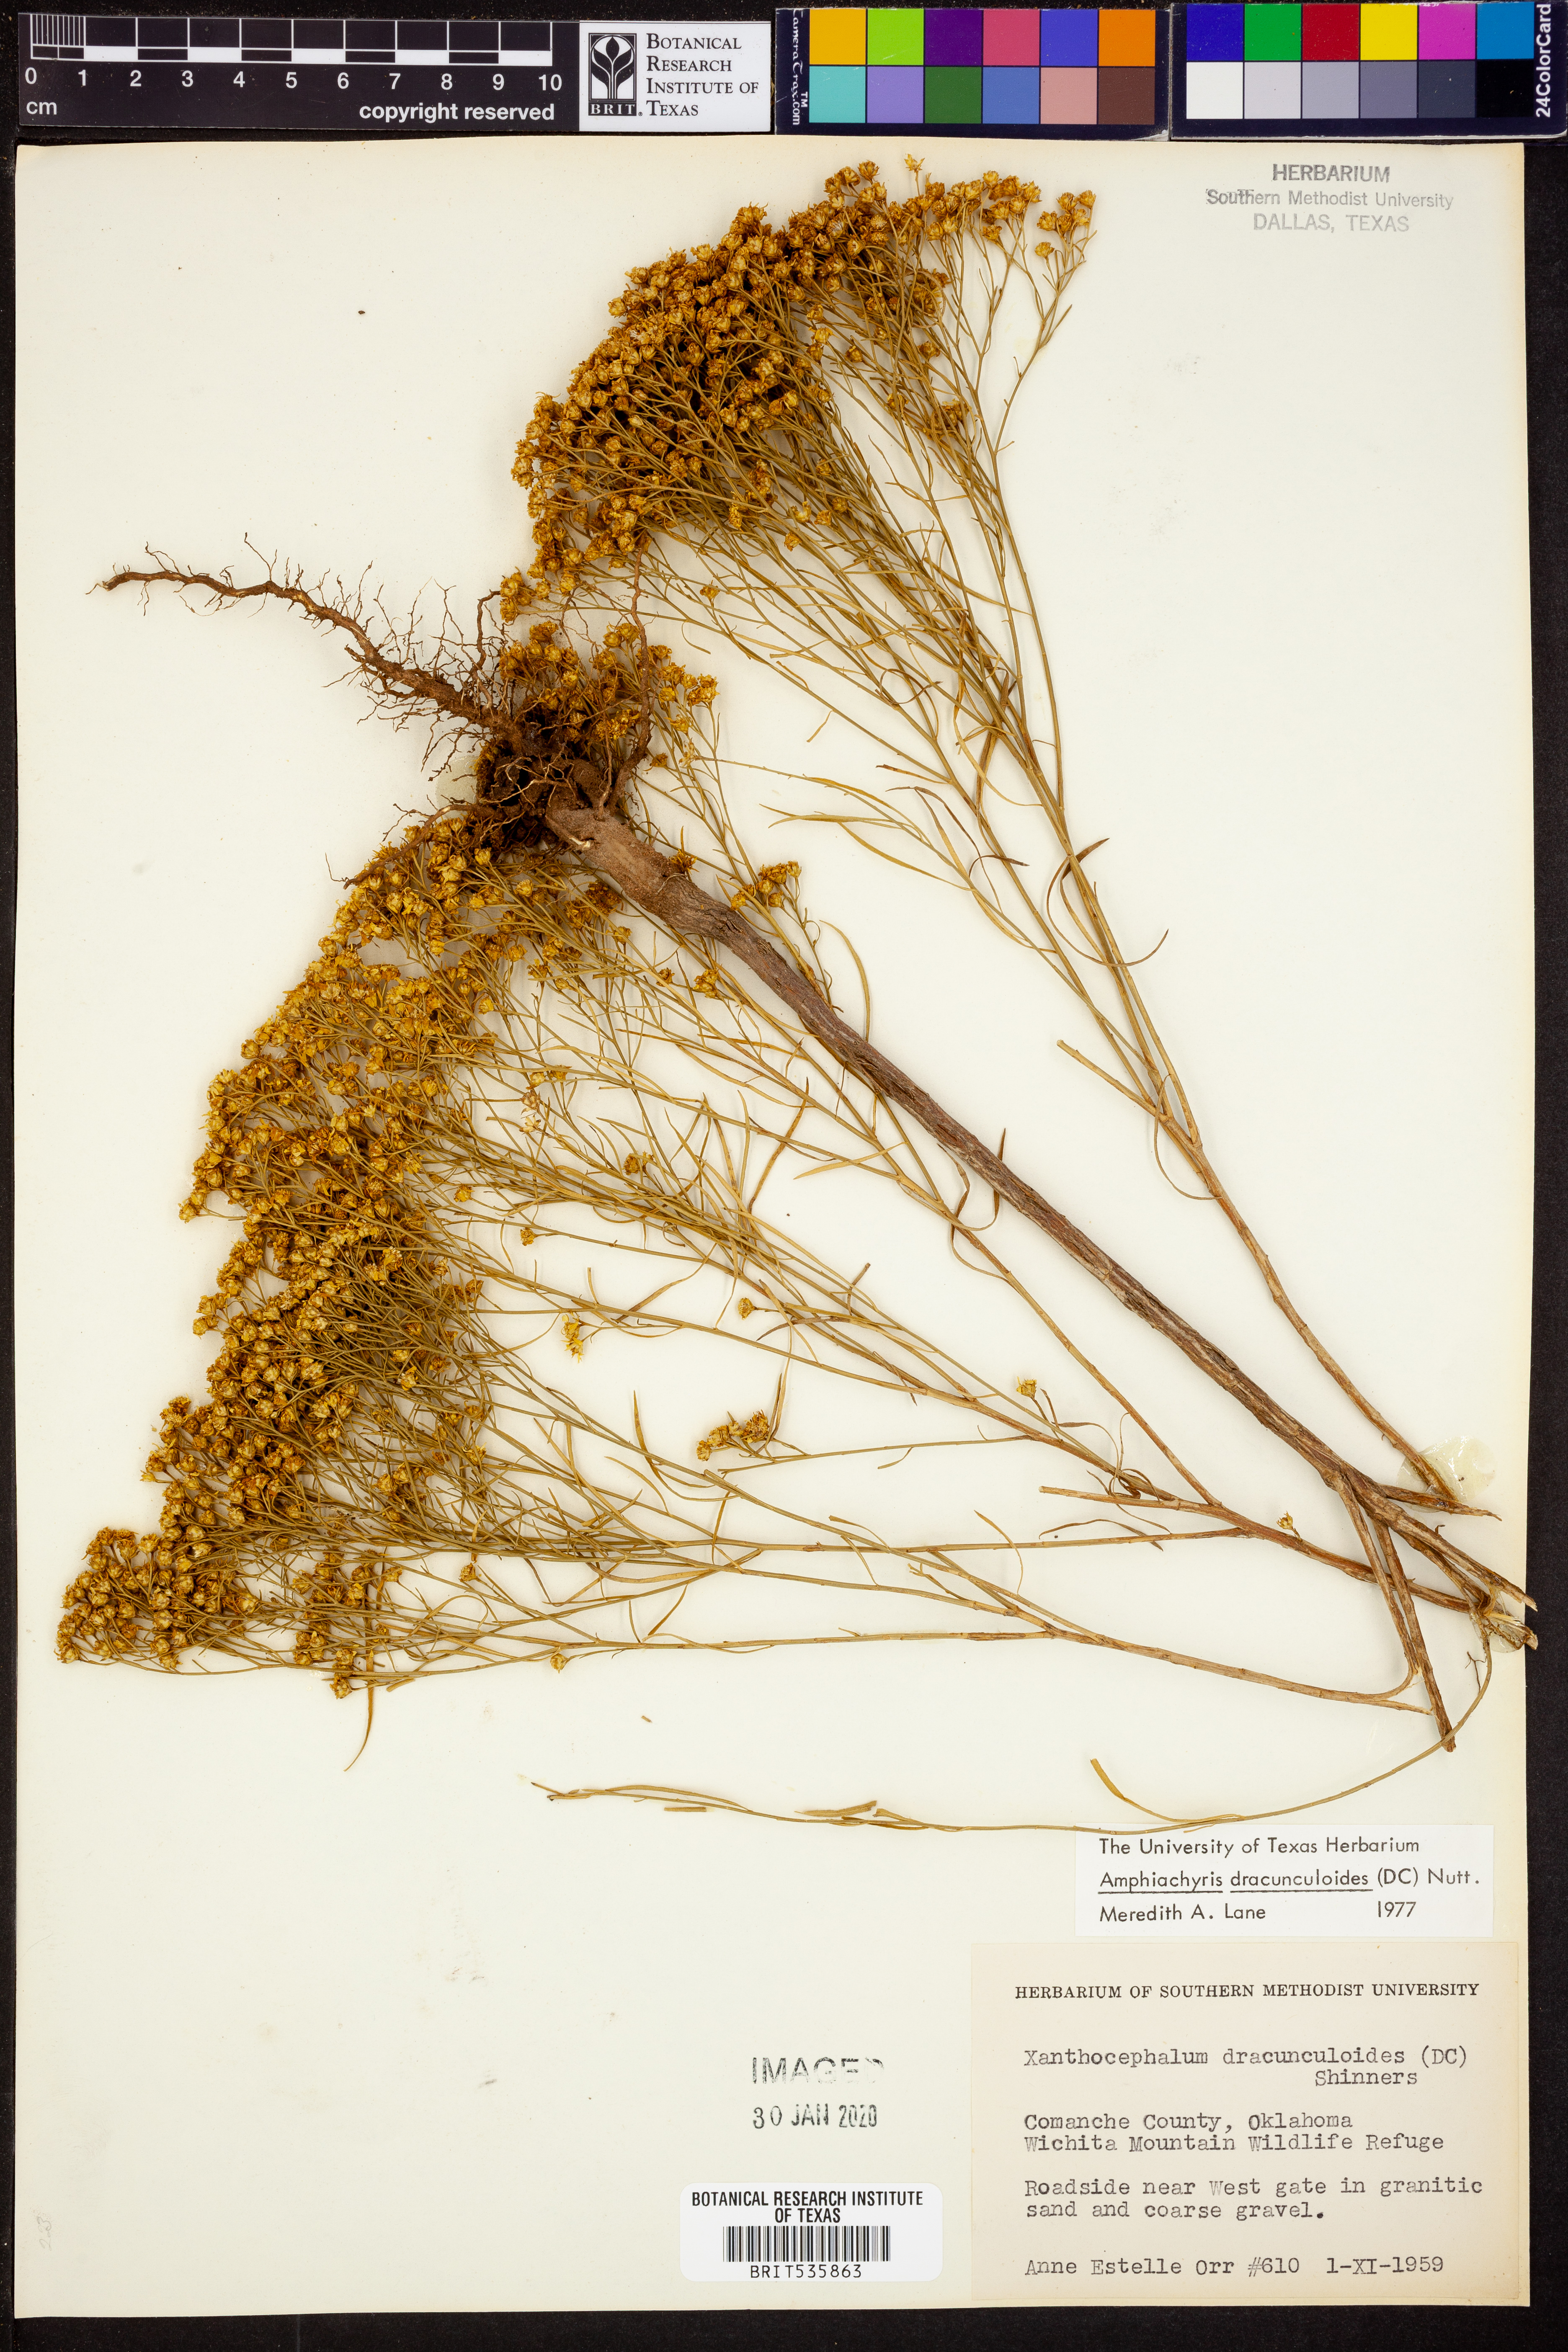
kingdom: Plantae
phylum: Tracheophyta
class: Magnoliopsida
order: Asterales
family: Asteraceae
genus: Amphiachyris
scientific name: Amphiachyris dracunculoides
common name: Broomweed
